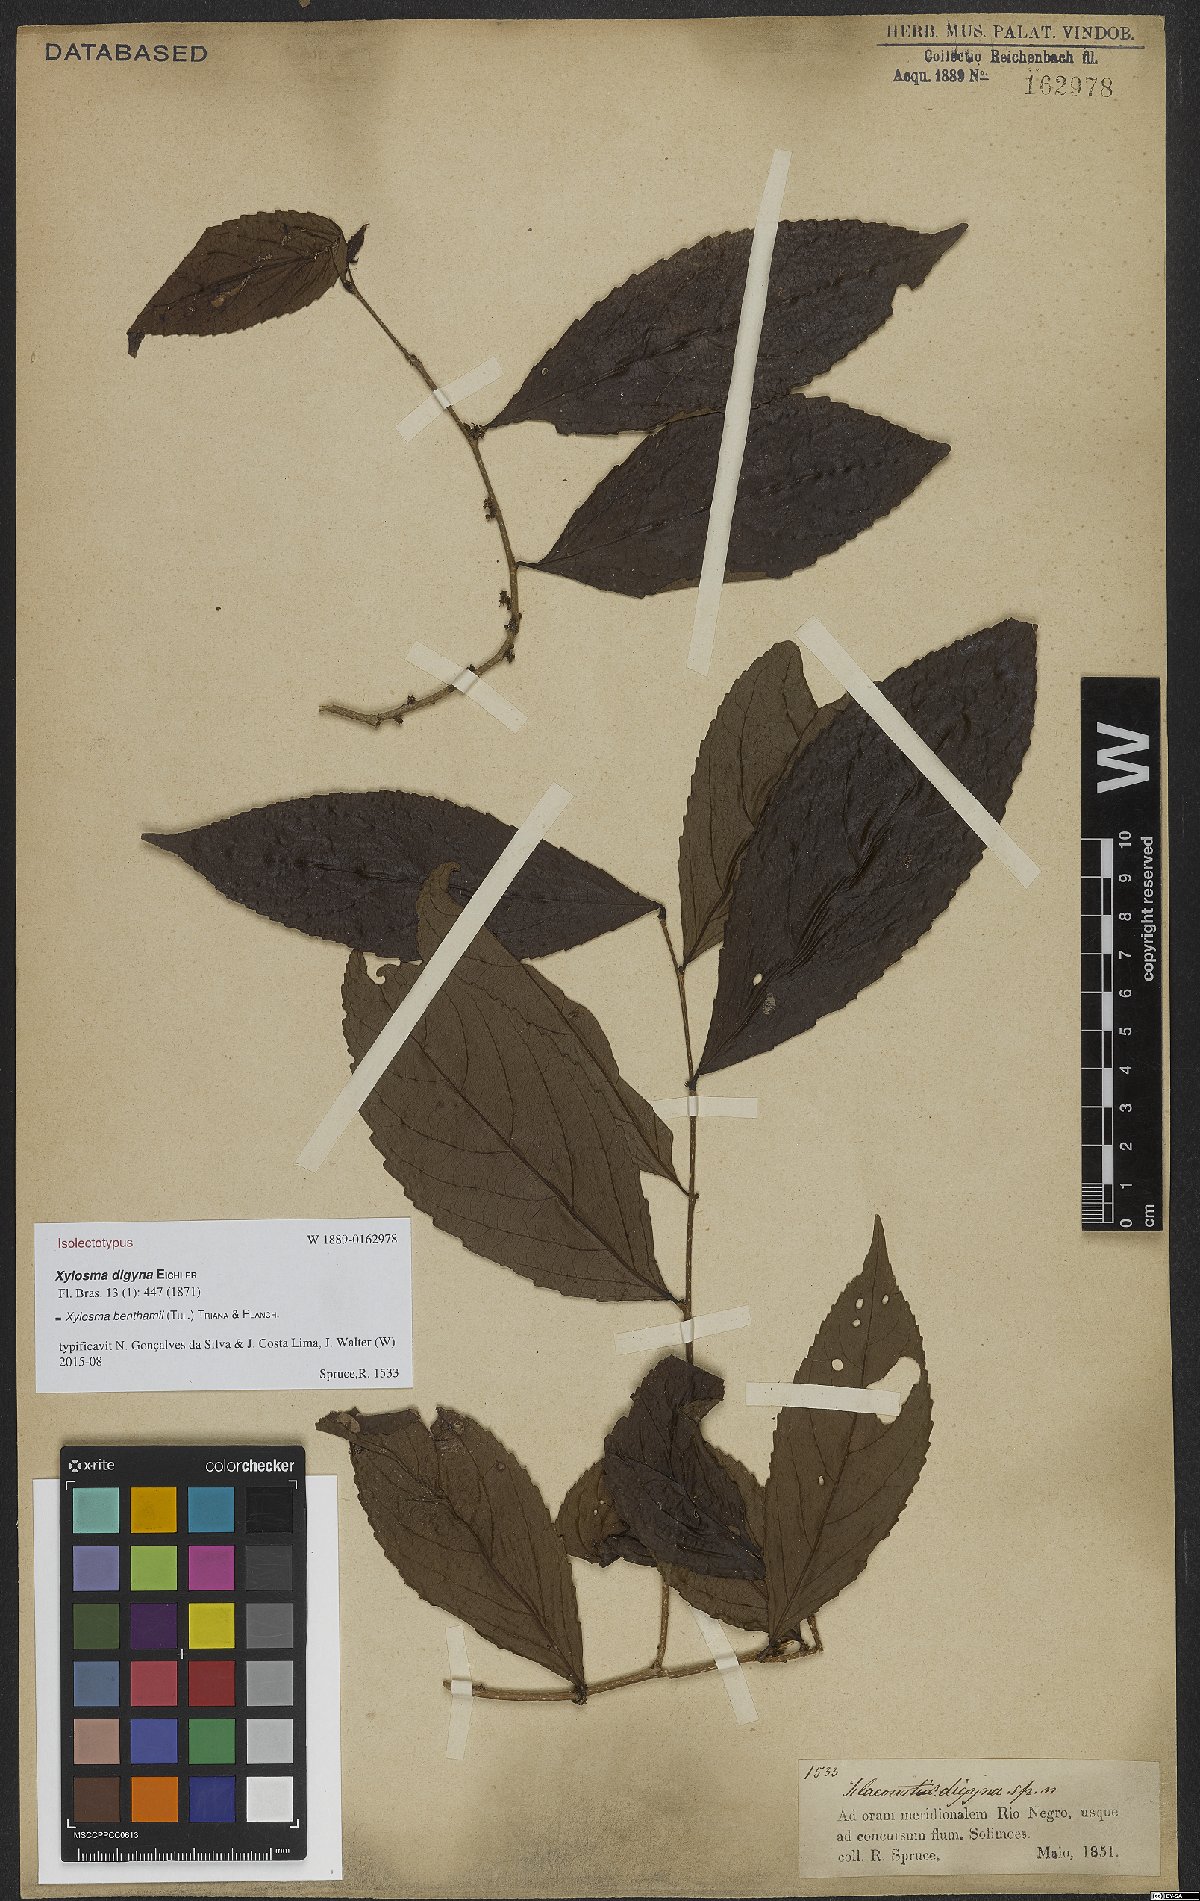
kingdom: Plantae
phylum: Tracheophyta
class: Magnoliopsida
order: Malpighiales
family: Salicaceae
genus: Xylosma
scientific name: Xylosma benthamii
